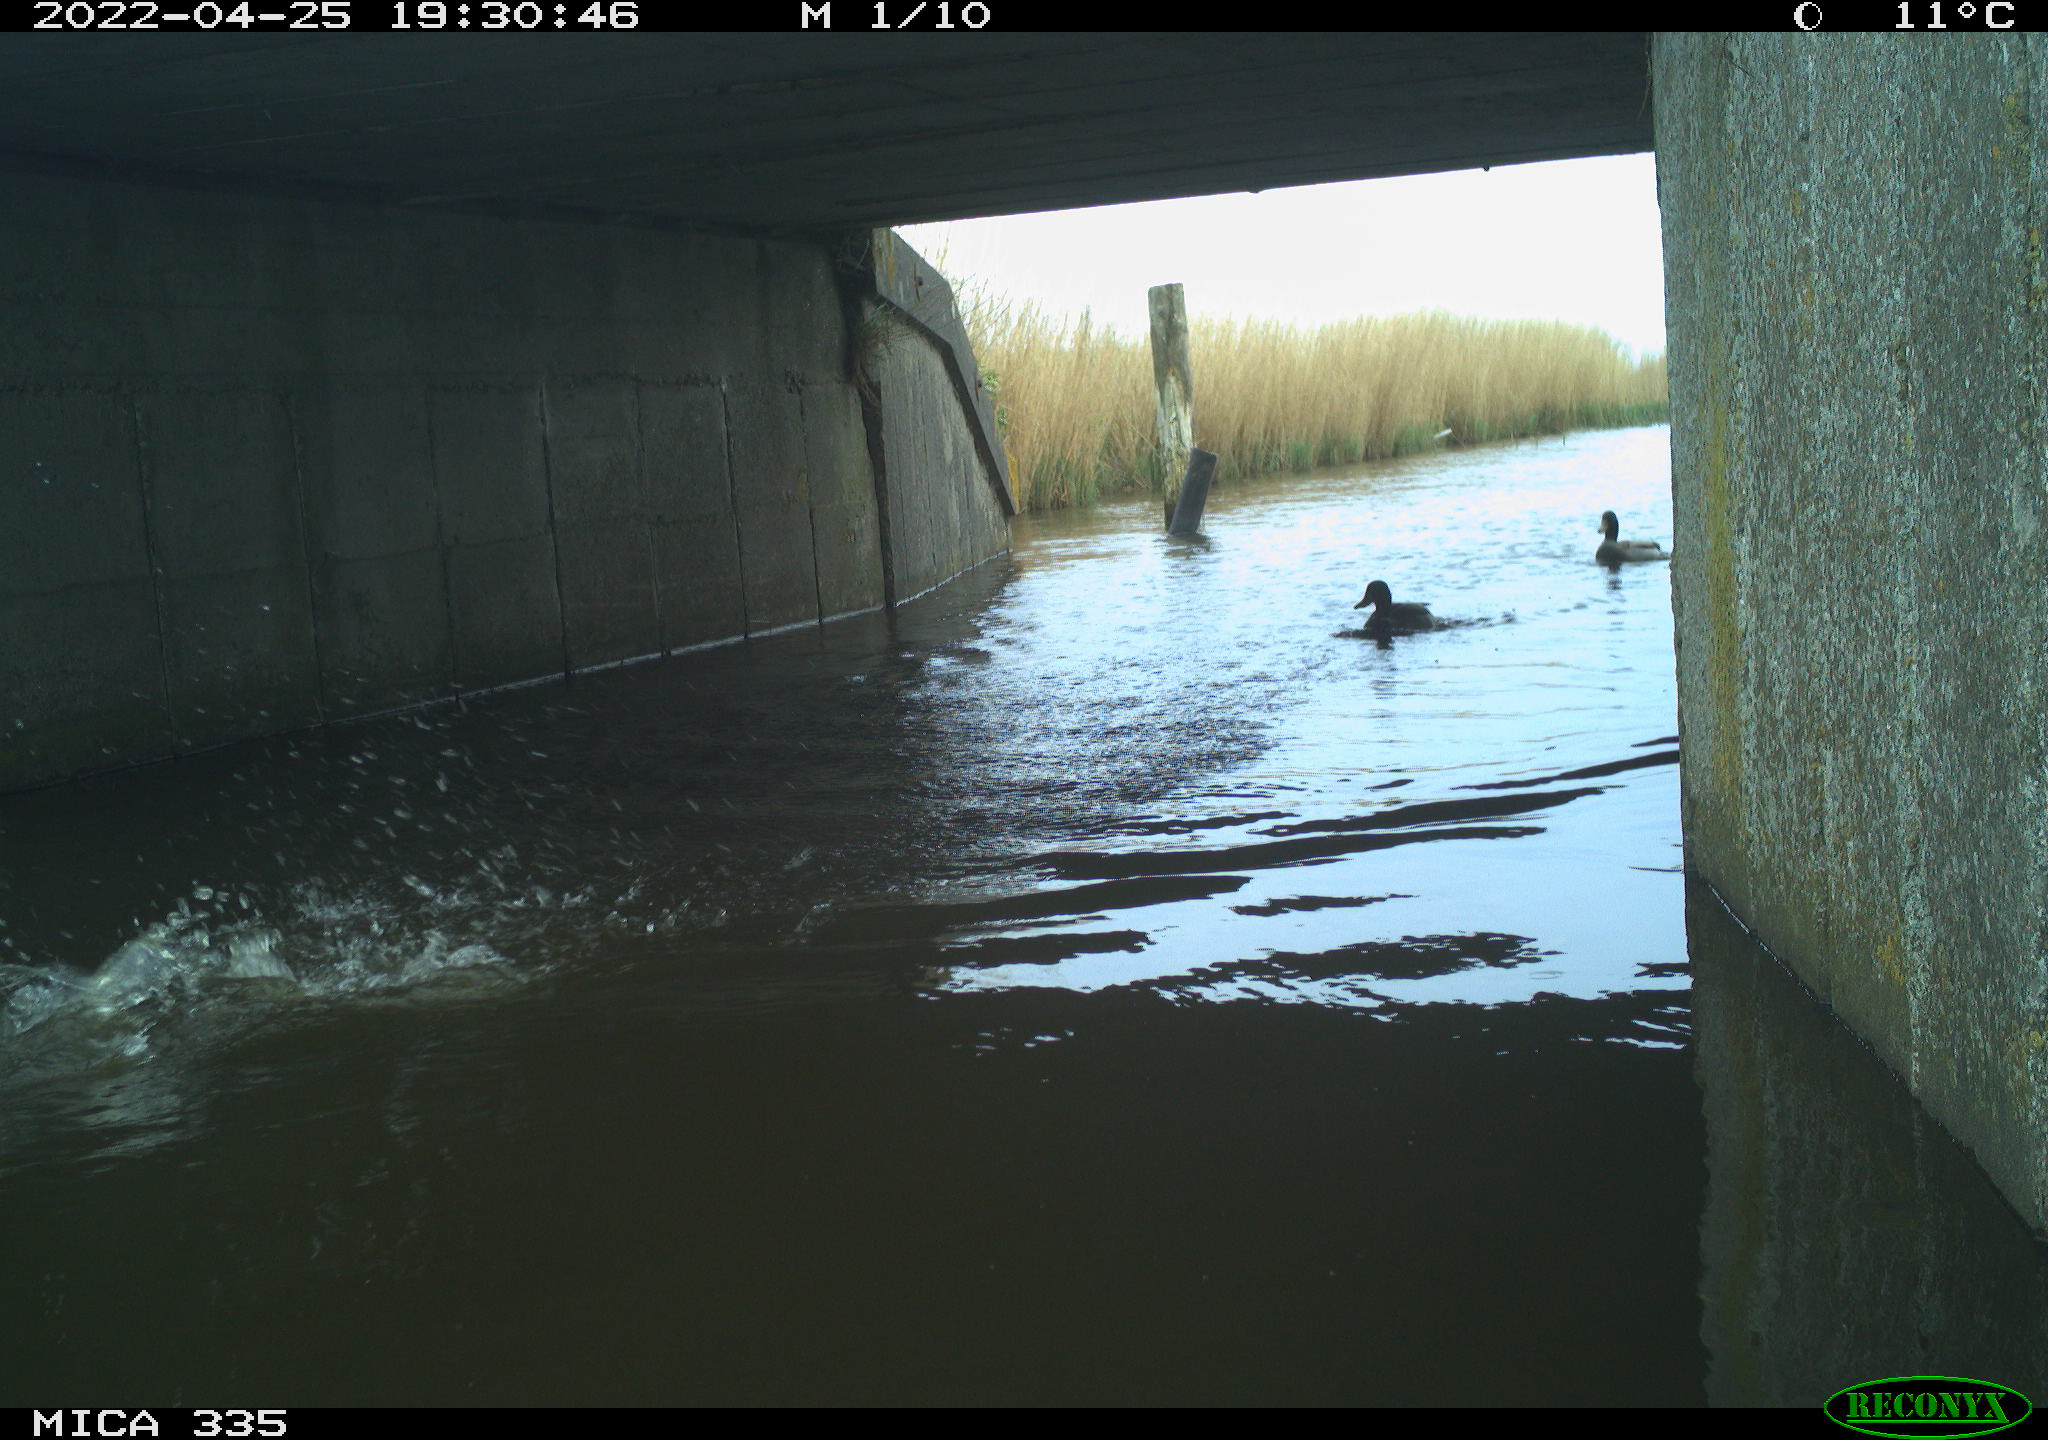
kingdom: Animalia
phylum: Chordata
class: Aves
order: Anseriformes
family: Anatidae
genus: Anas
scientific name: Anas platyrhynchos
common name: Mallard
